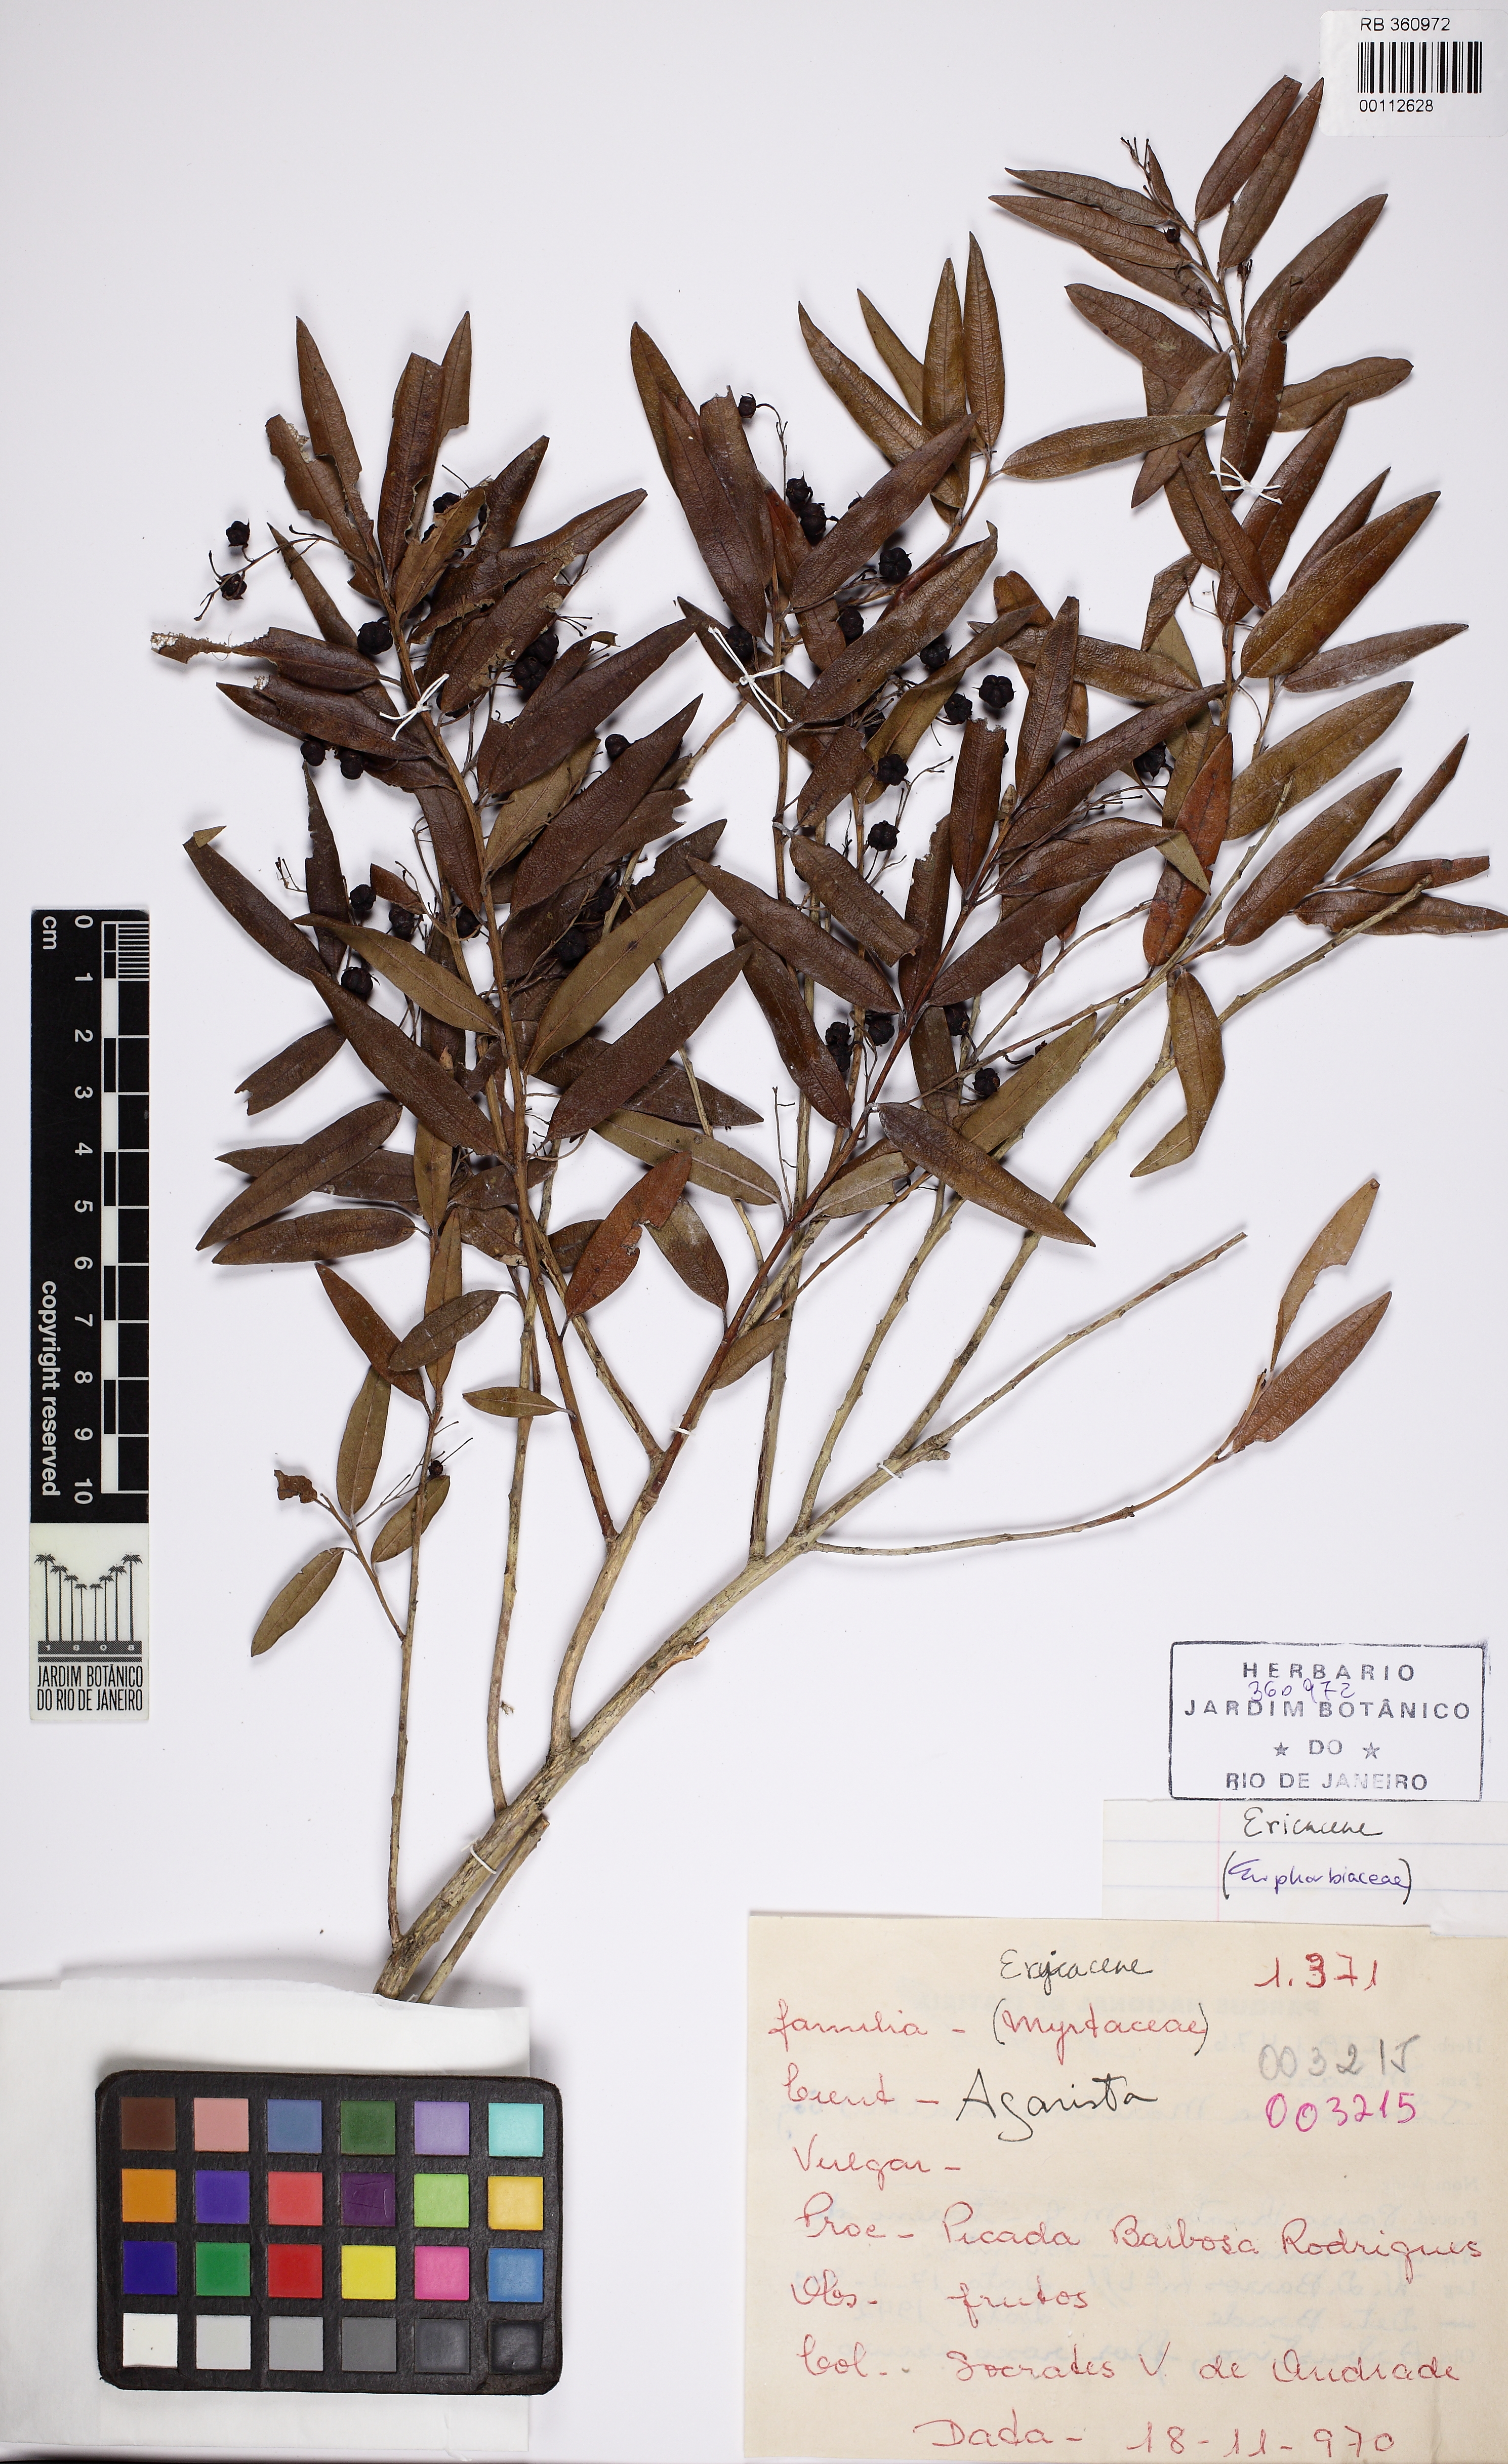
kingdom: Plantae
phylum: Tracheophyta
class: Magnoliopsida
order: Ericales
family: Ericaceae
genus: Agarista
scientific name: Agarista oleifolia
